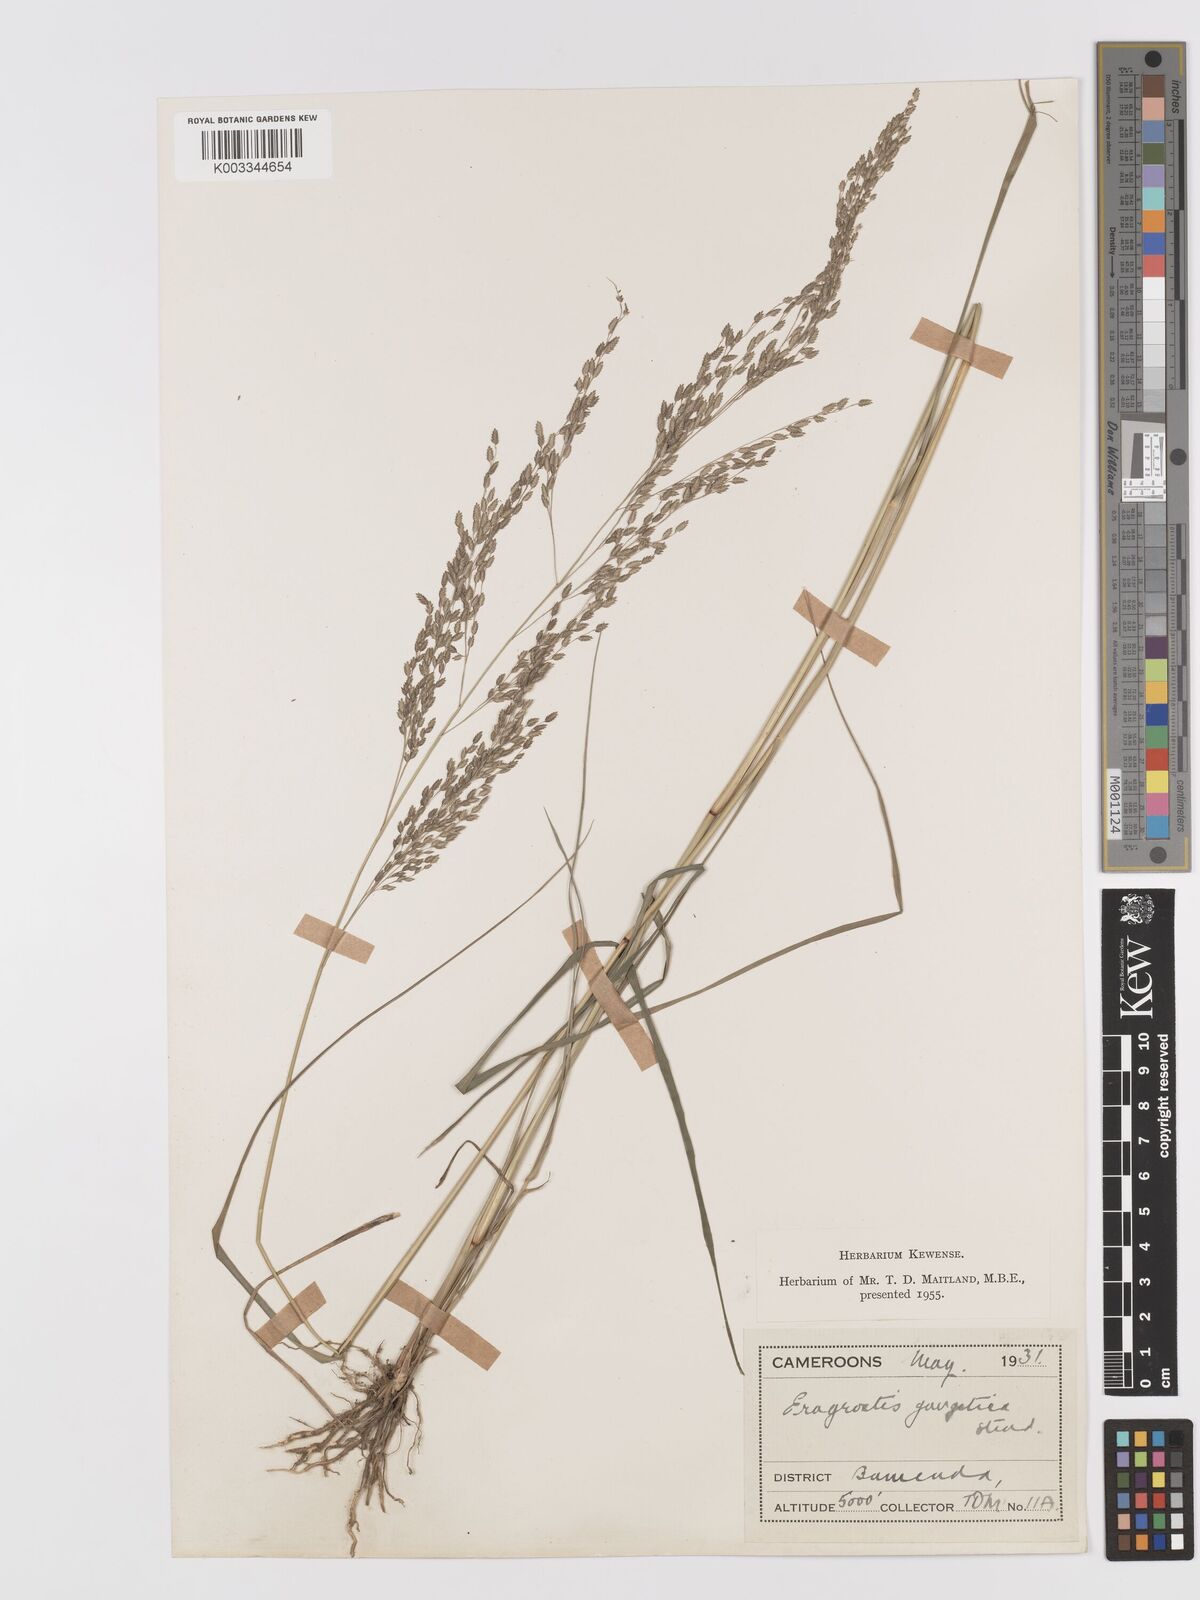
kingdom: Plantae
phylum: Tracheophyta
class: Liliopsida
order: Poales
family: Poaceae
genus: Eragrostis
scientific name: Eragrostis atrovirens
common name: Thalia lovegrass
